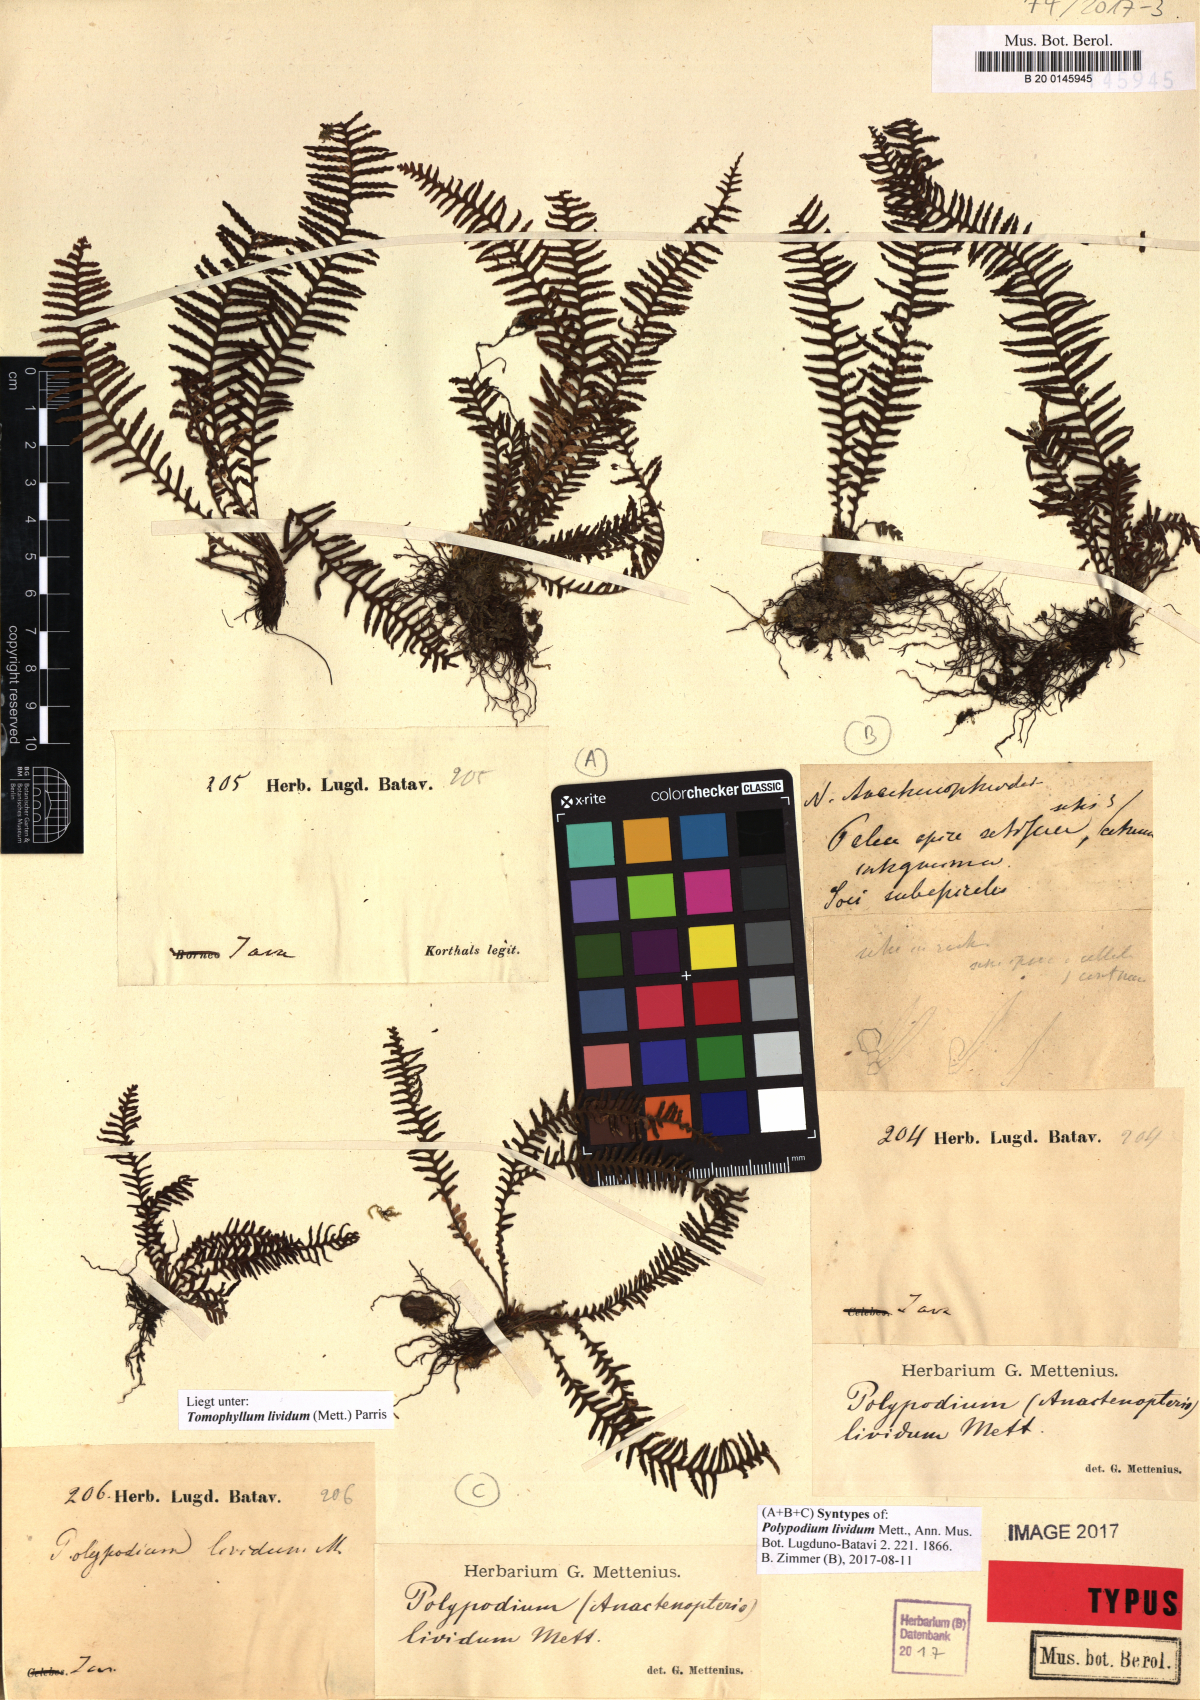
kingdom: Plantae
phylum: Tracheophyta
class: Polypodiopsida
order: Polypodiales
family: Polypodiaceae
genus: Tomophyllum
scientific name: Tomophyllum lividum
